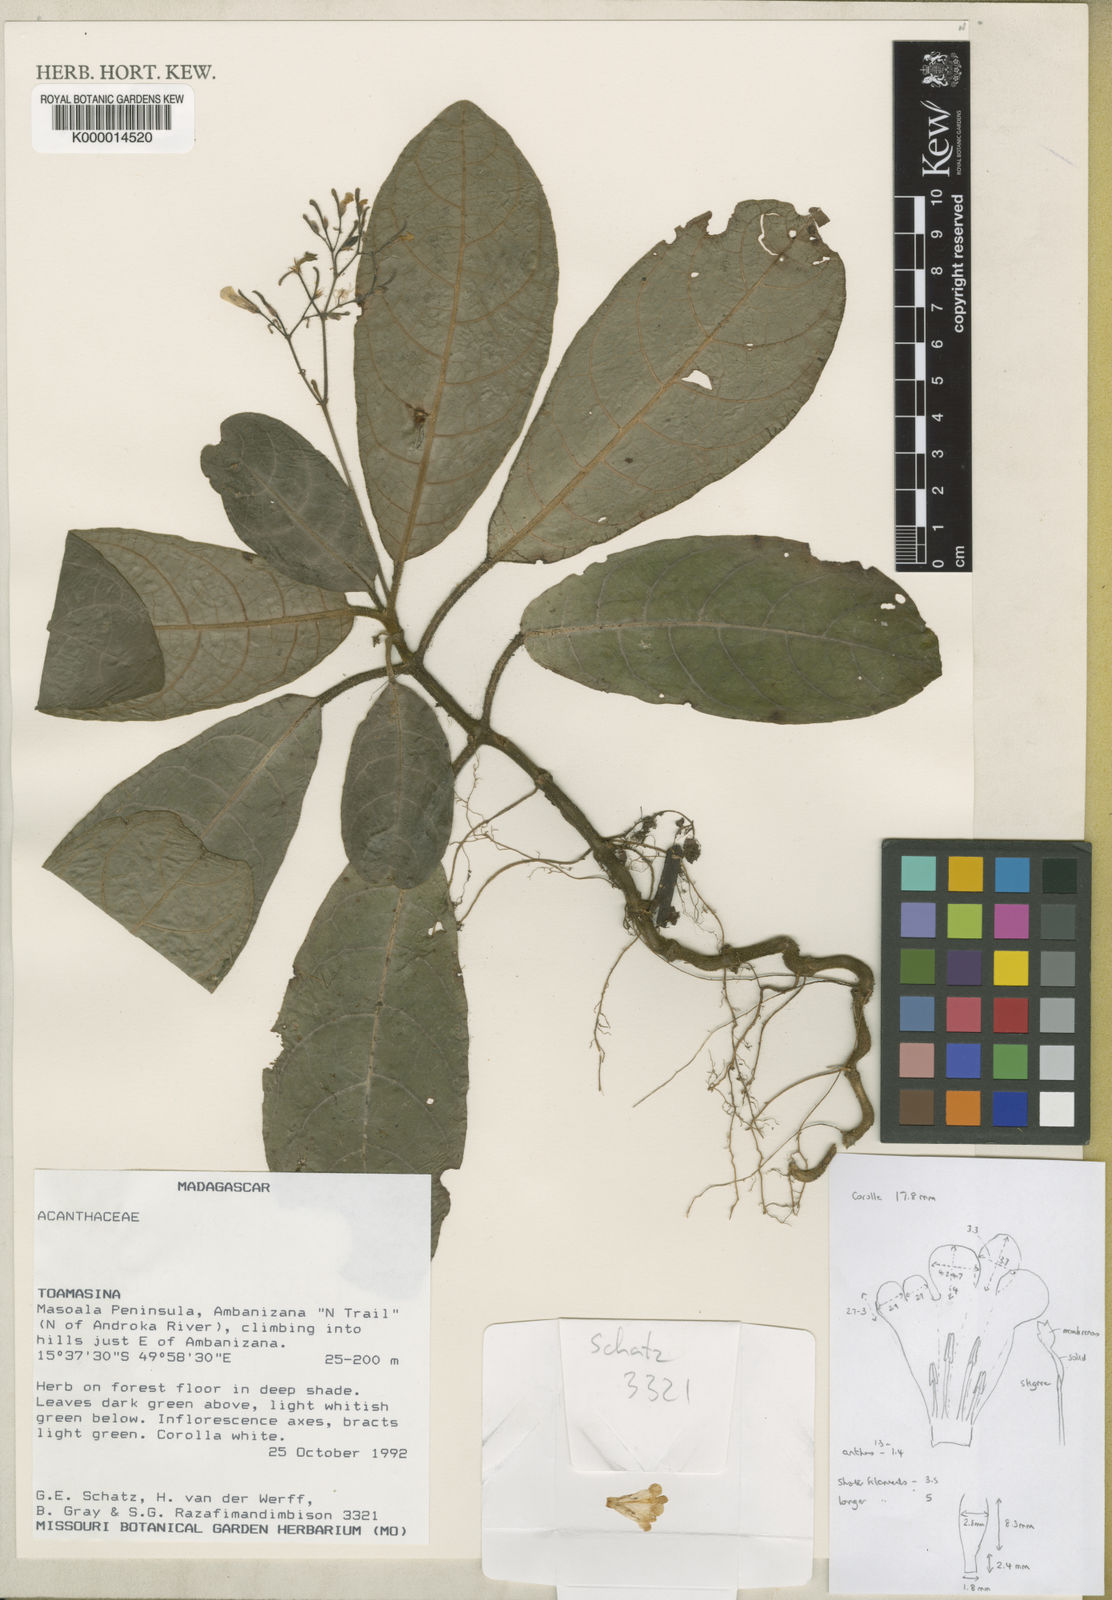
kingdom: Plantae
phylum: Tracheophyta
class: Magnoliopsida
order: Lamiales
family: Acanthaceae
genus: Podorungia
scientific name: Podorungia gesnerioides
